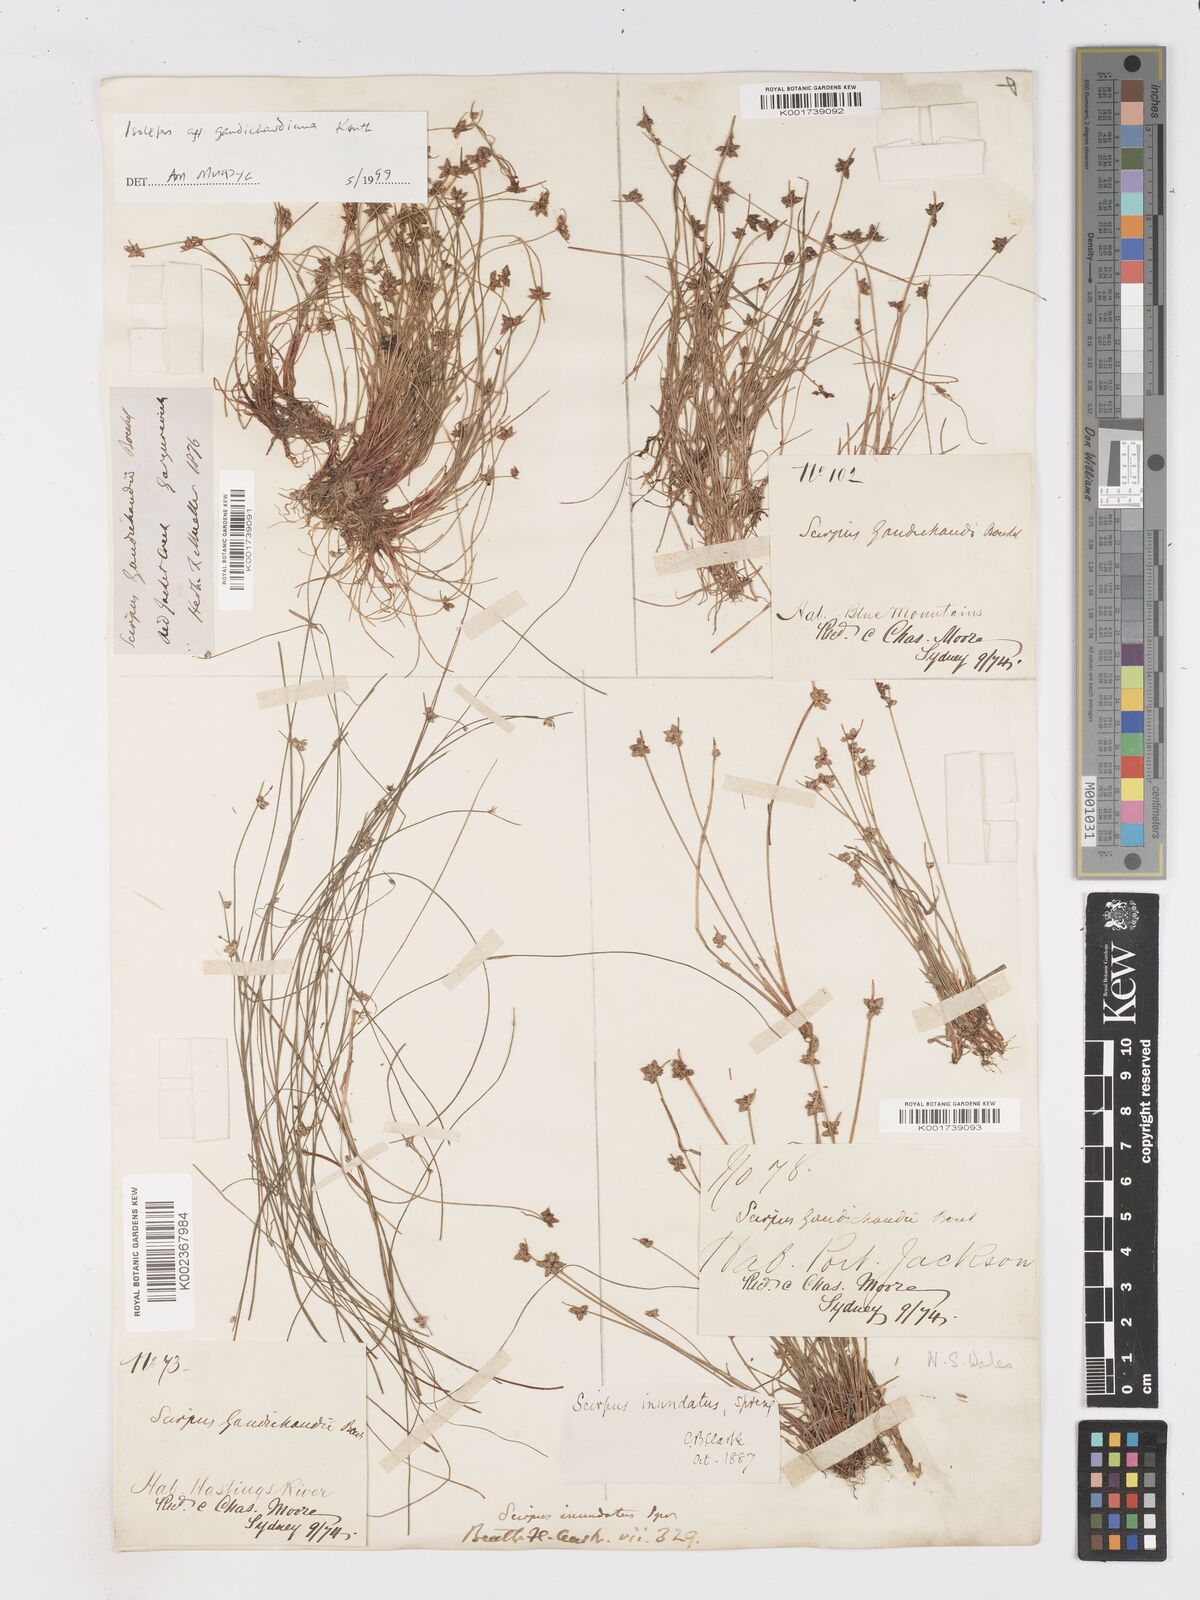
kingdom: Plantae
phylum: Tracheophyta
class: Liliopsida
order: Poales
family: Cyperaceae
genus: Isolepis
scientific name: Isolepis inundata
